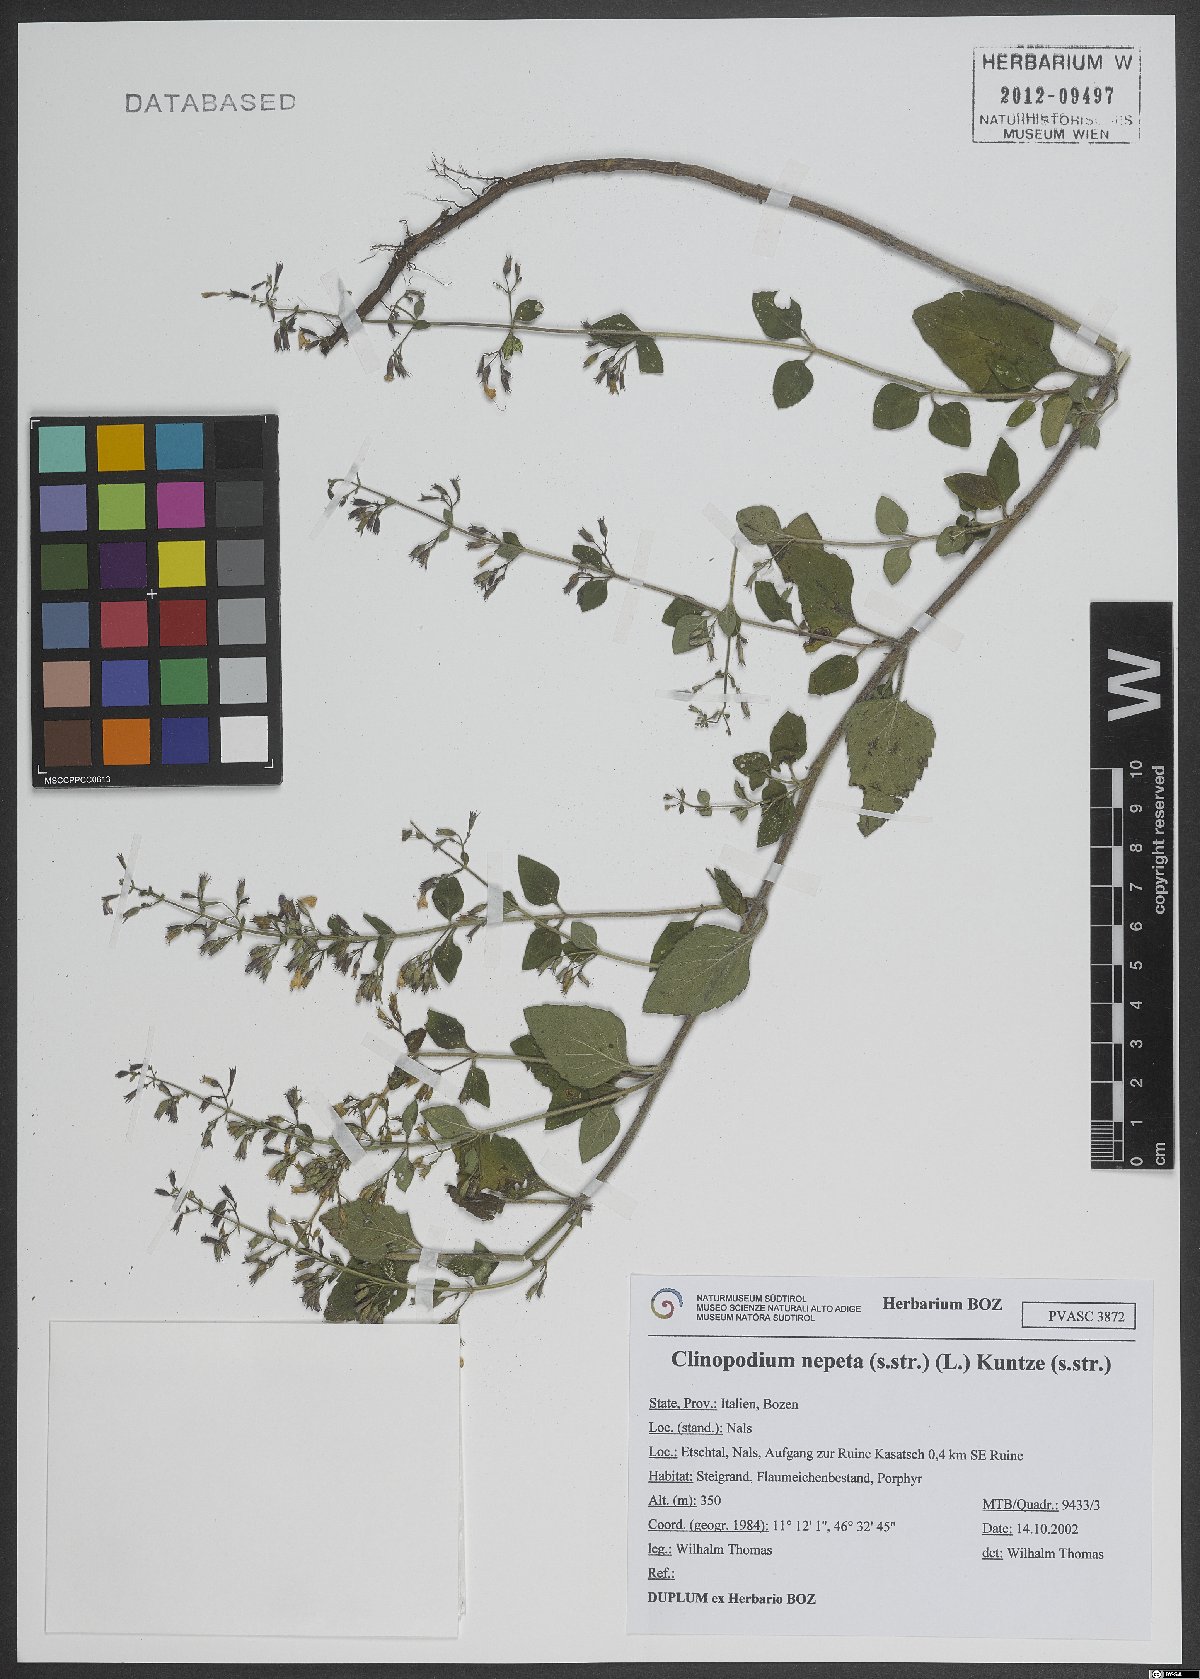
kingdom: Plantae
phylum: Tracheophyta
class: Magnoliopsida
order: Lamiales
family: Lamiaceae
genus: Clinopodium
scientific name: Clinopodium nepeta
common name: Lesser calamint
